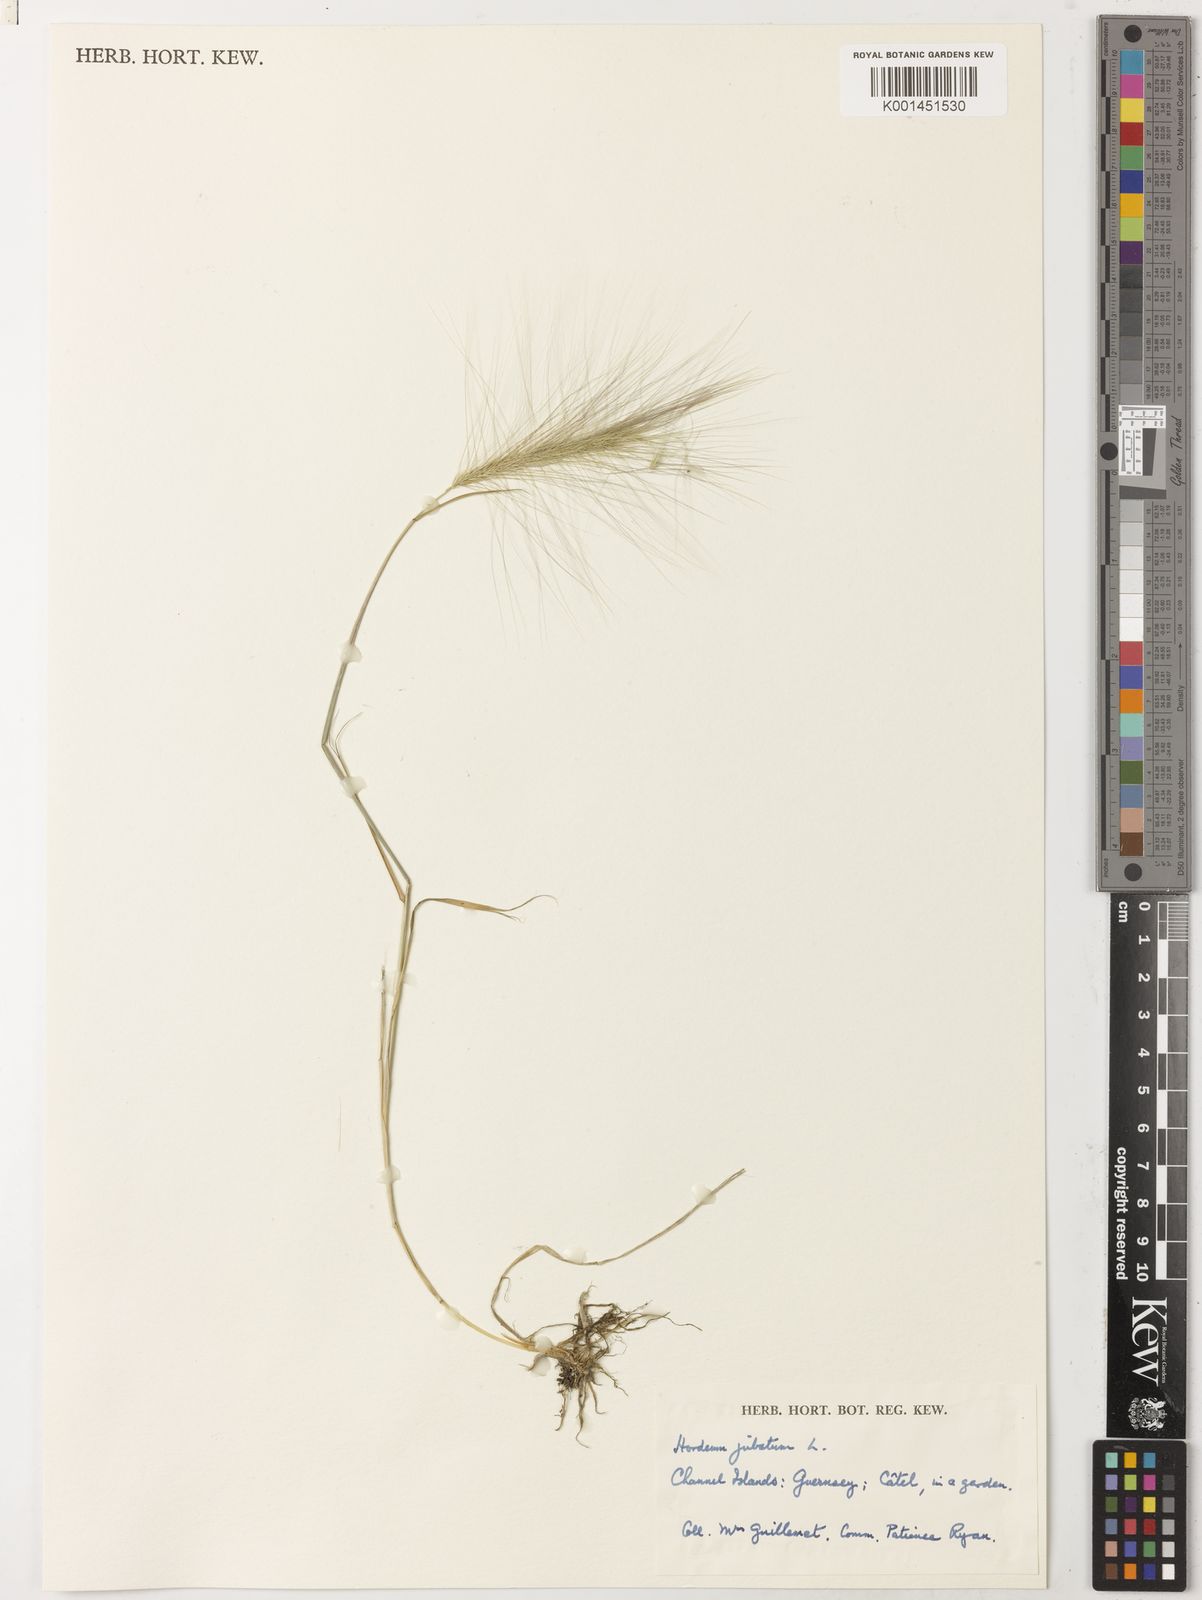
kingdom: Plantae
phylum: Tracheophyta
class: Liliopsida
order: Poales
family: Poaceae
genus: Hordeum
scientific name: Hordeum jubatum
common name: Foxtail barley
